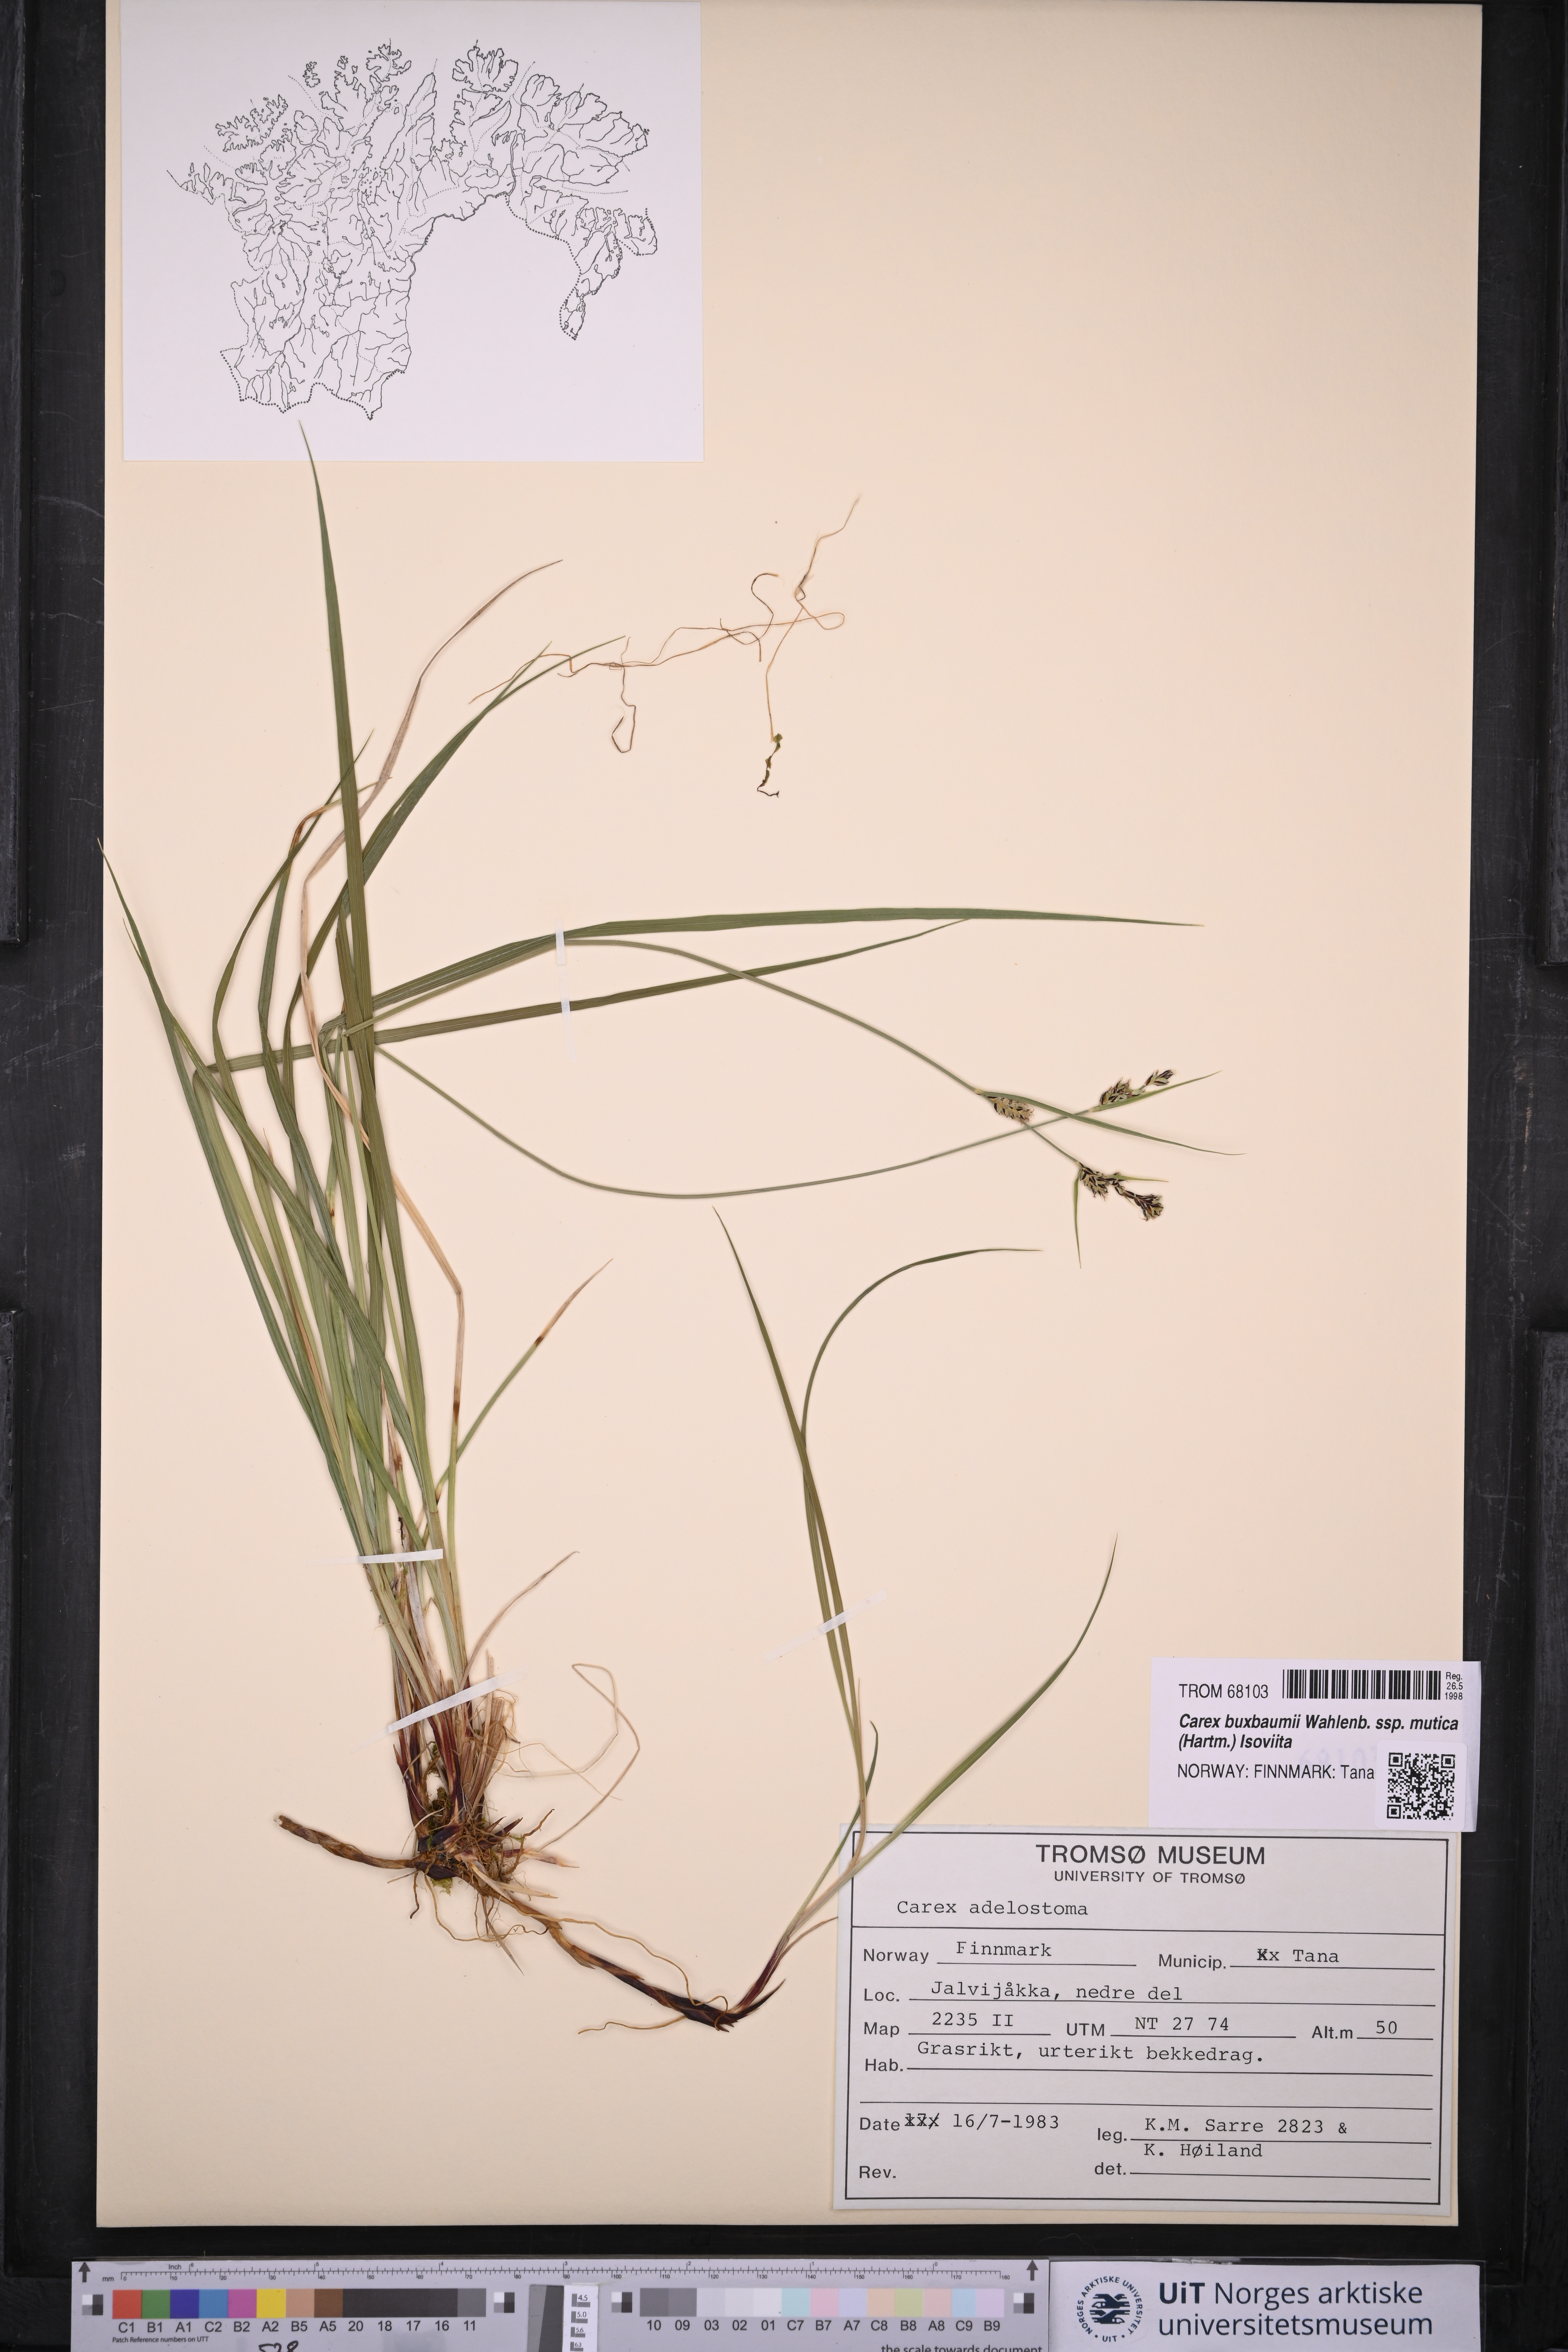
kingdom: Plantae
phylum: Tracheophyta
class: Liliopsida
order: Poales
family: Cyperaceae
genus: Carex
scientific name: Carex adelostoma
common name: Circumpolar sedge
